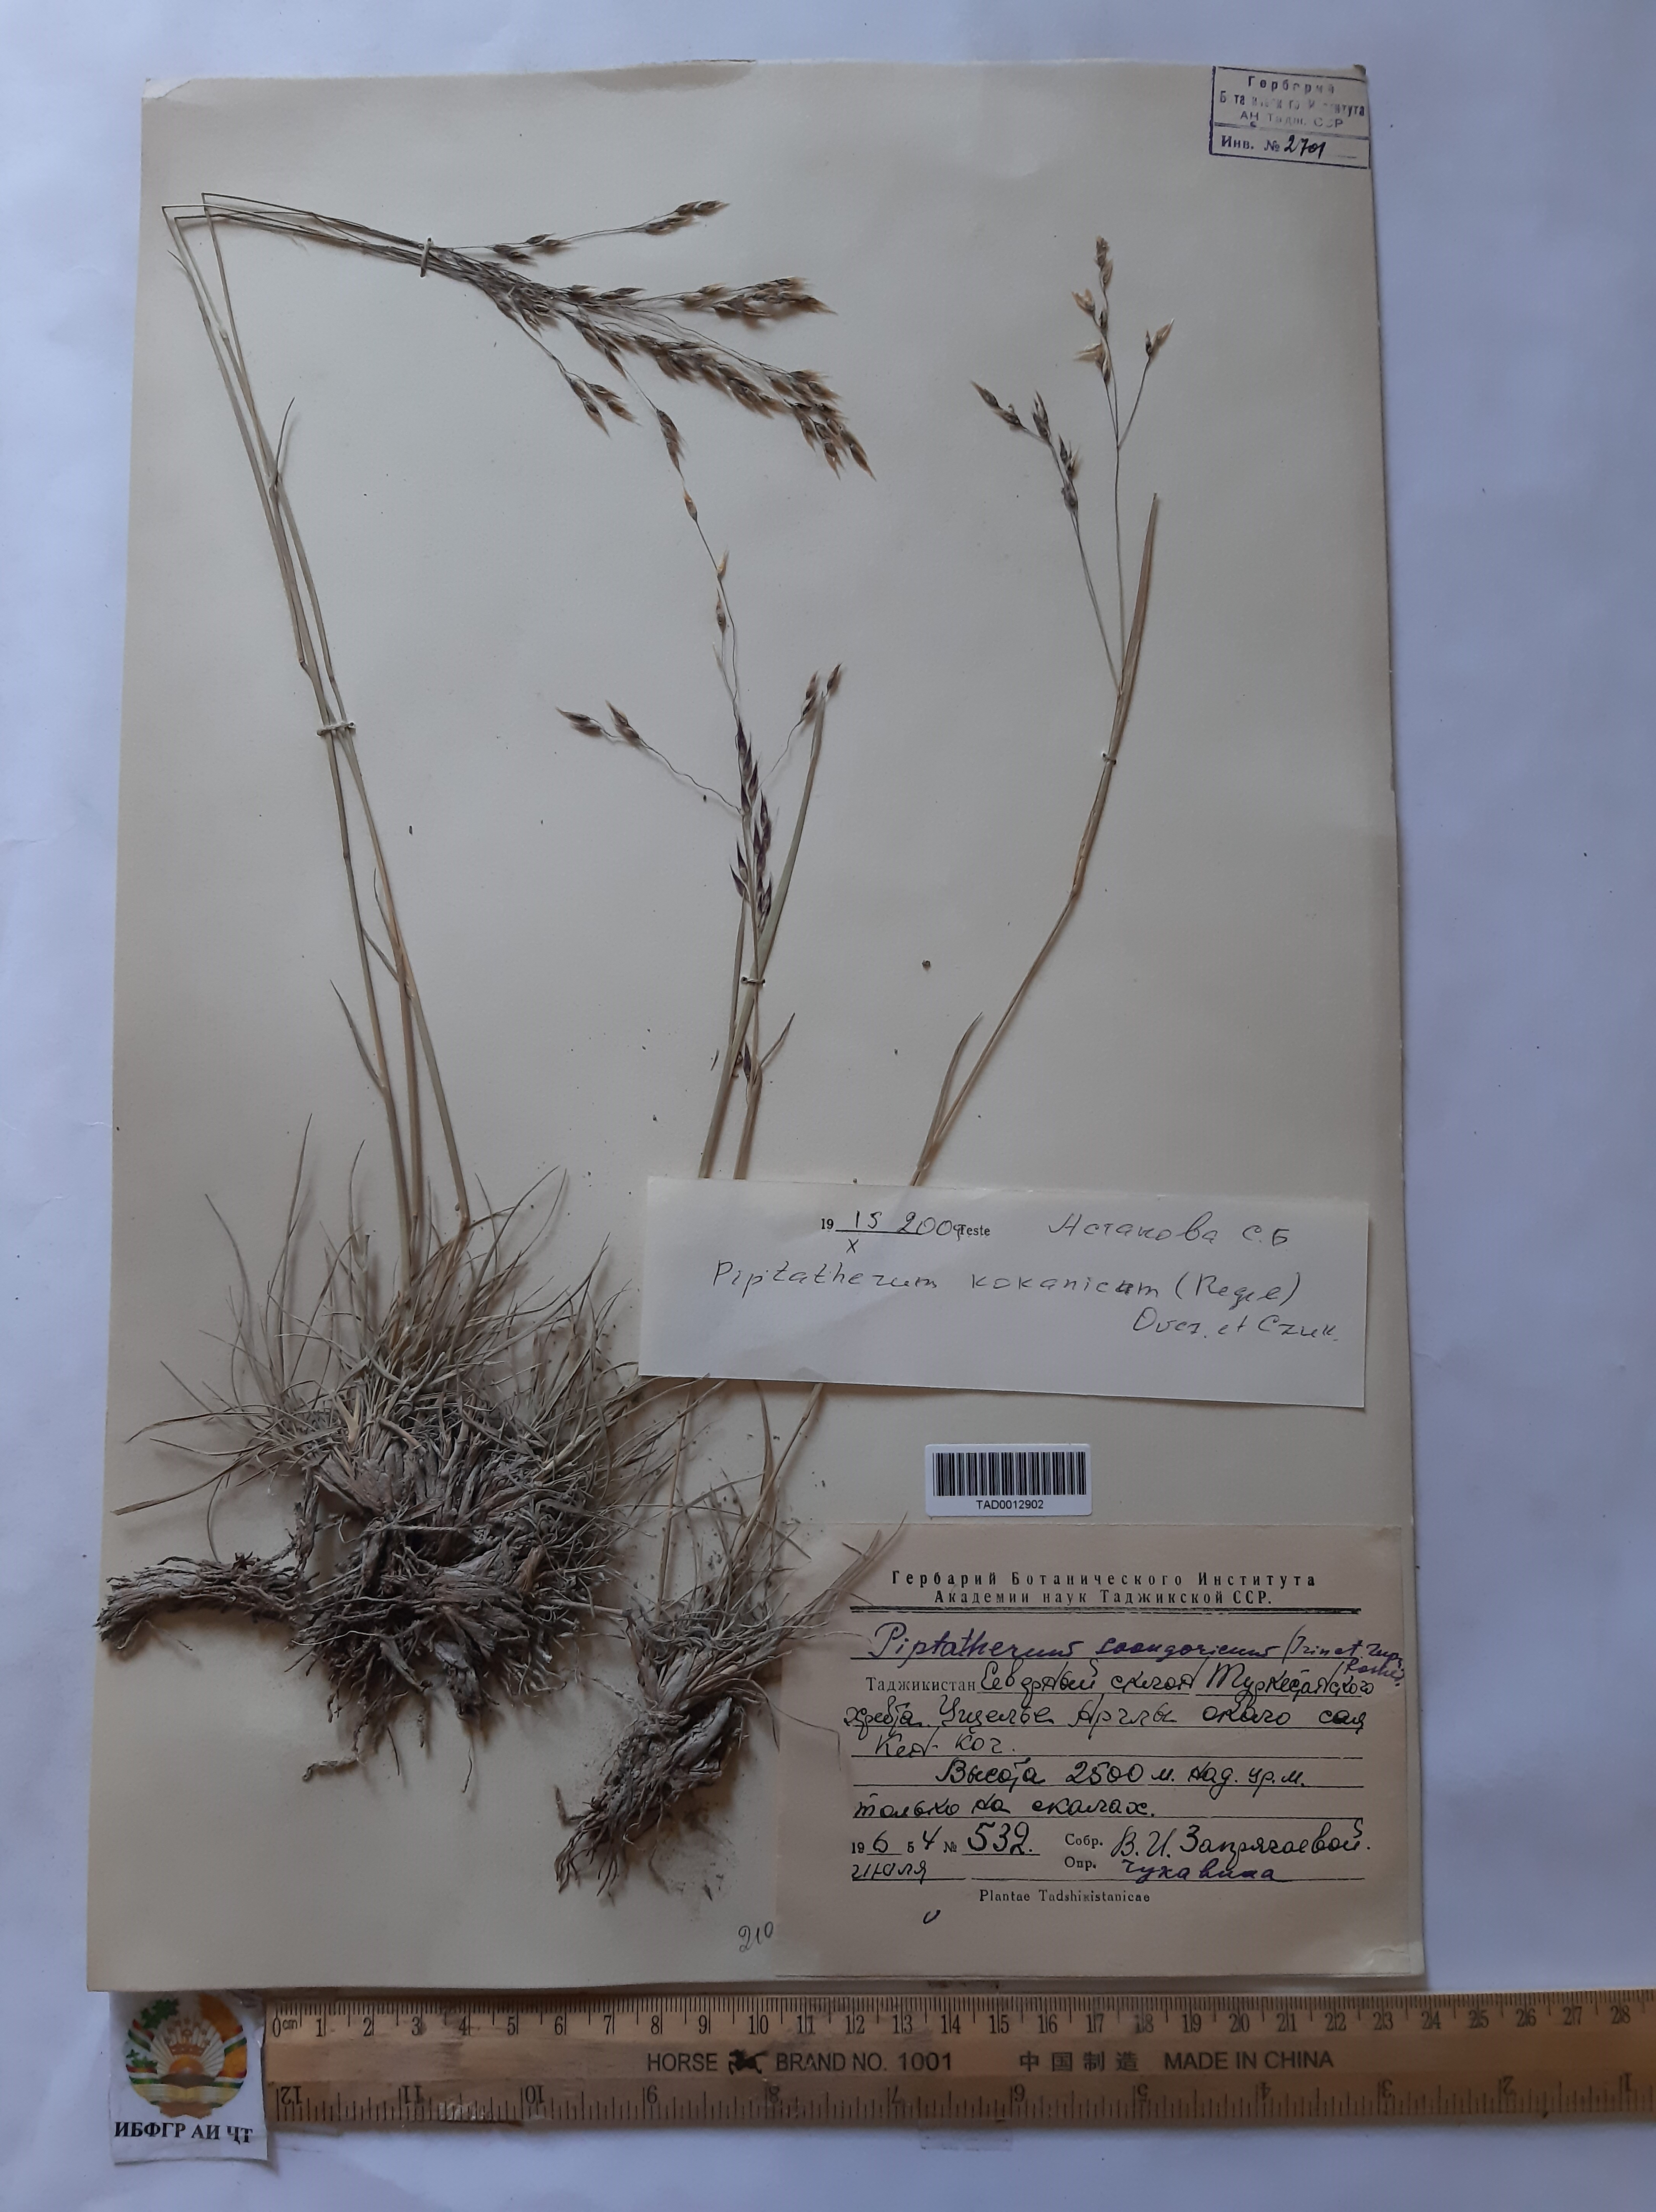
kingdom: Plantae
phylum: Tracheophyta
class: Liliopsida
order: Poales
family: Poaceae
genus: Piptatherum
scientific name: Piptatherum songaricum
